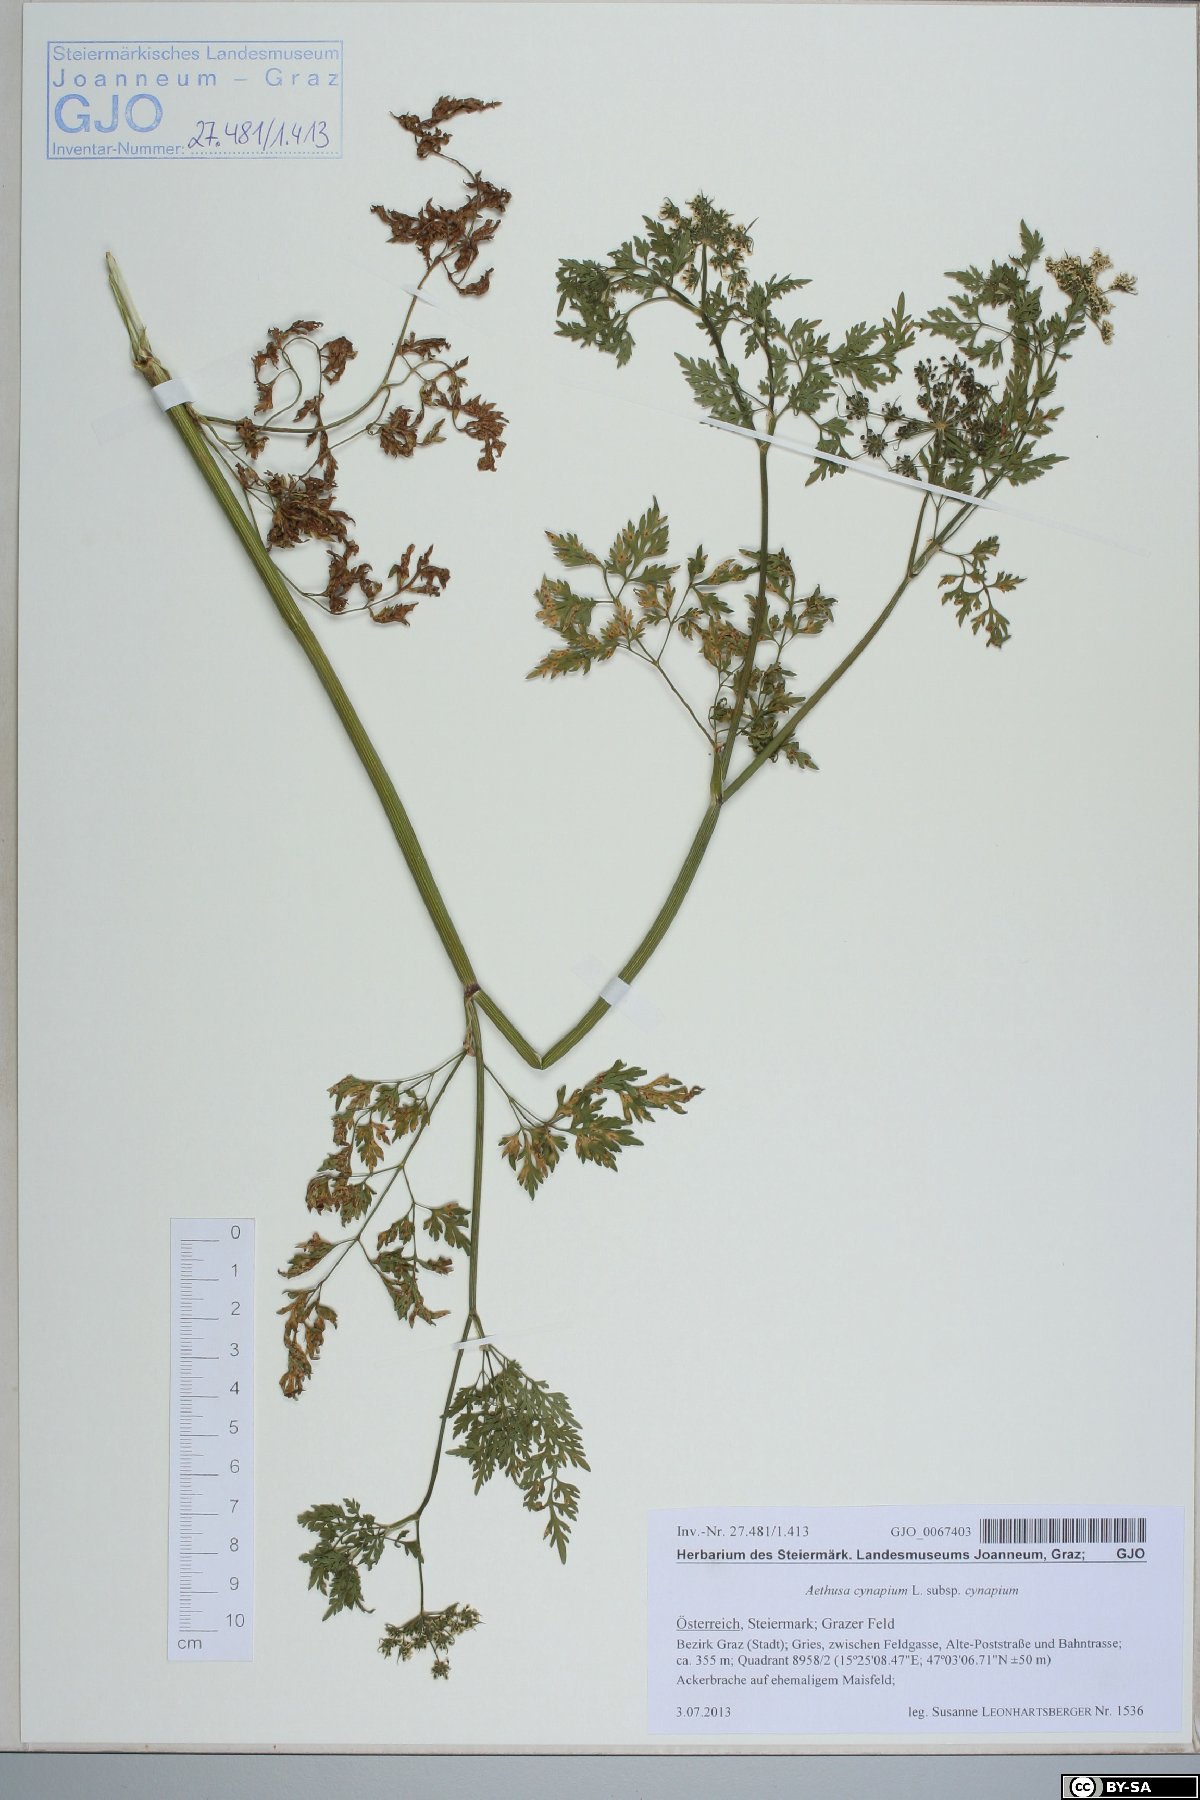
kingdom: Plantae
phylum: Tracheophyta
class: Magnoliopsida
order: Apiales
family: Apiaceae
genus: Aethusa
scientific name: Aethusa cynapium
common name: Fool's parsley
